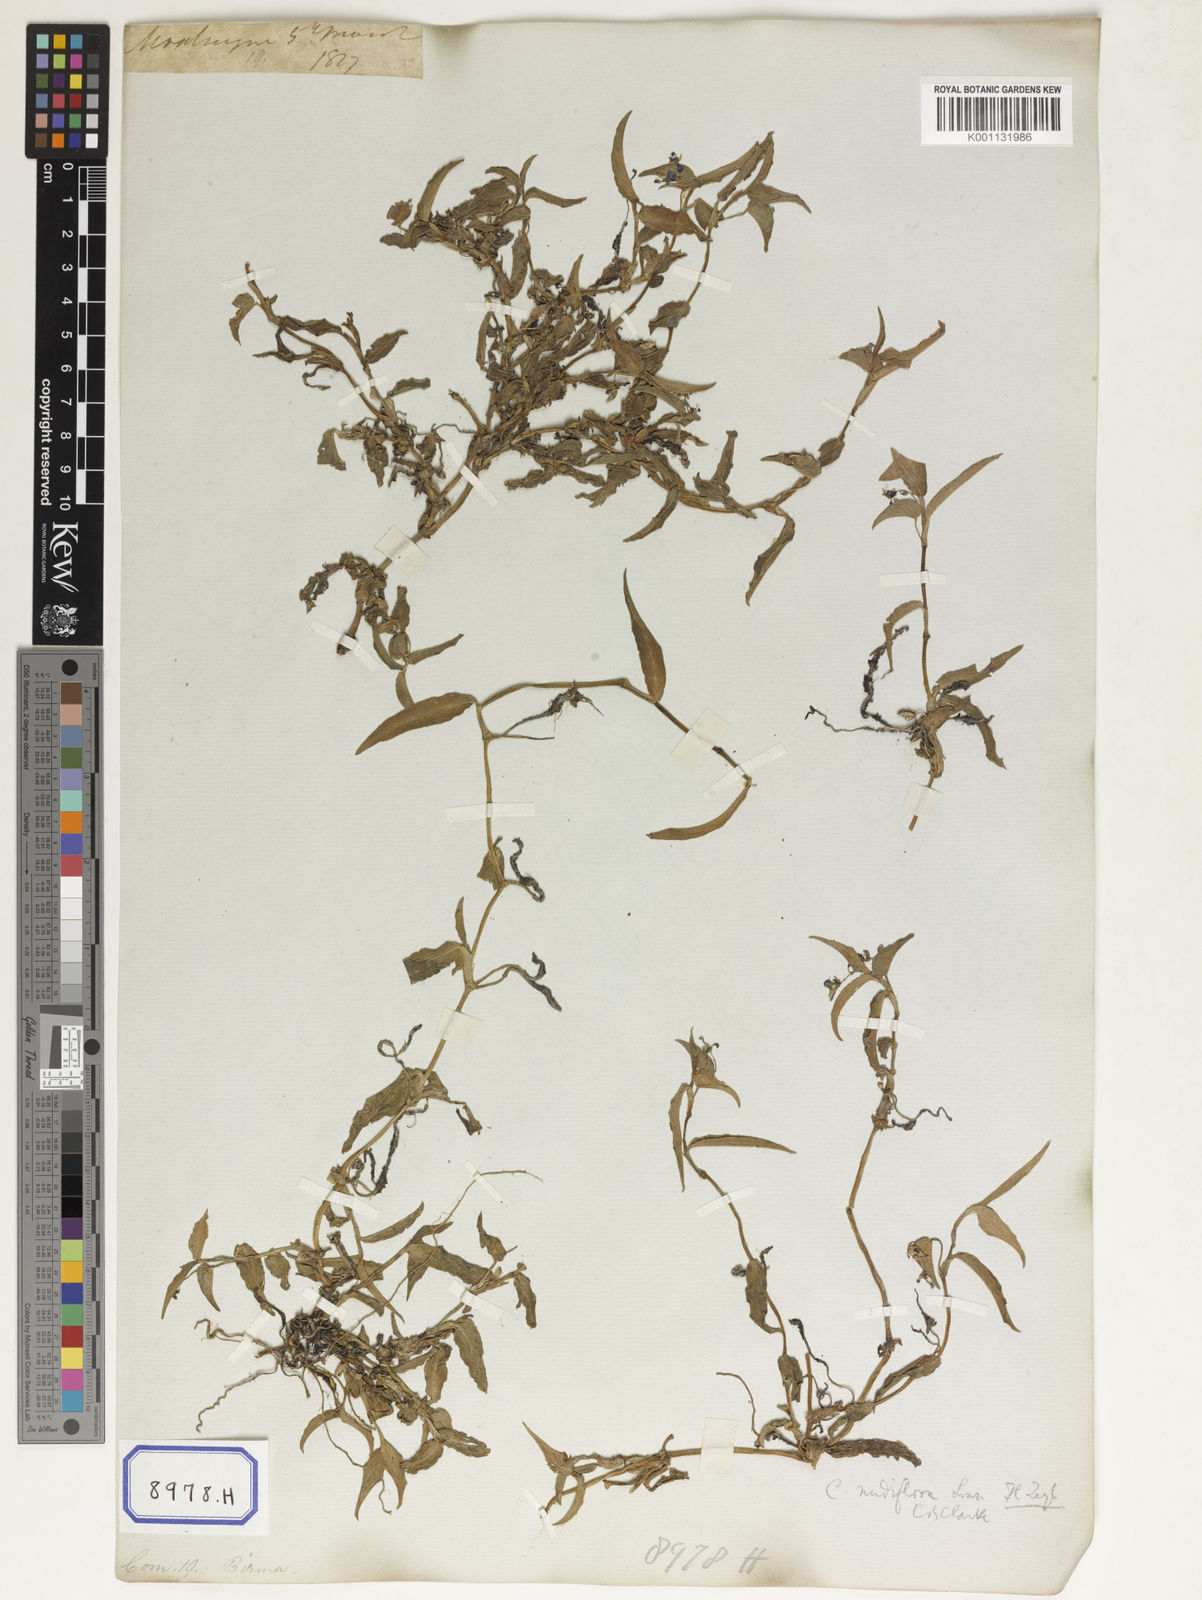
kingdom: Plantae
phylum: Tracheophyta
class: Liliopsida
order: Commelinales
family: Commelinaceae
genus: Commelina
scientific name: Commelina communis
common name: Asiatic dayflower
